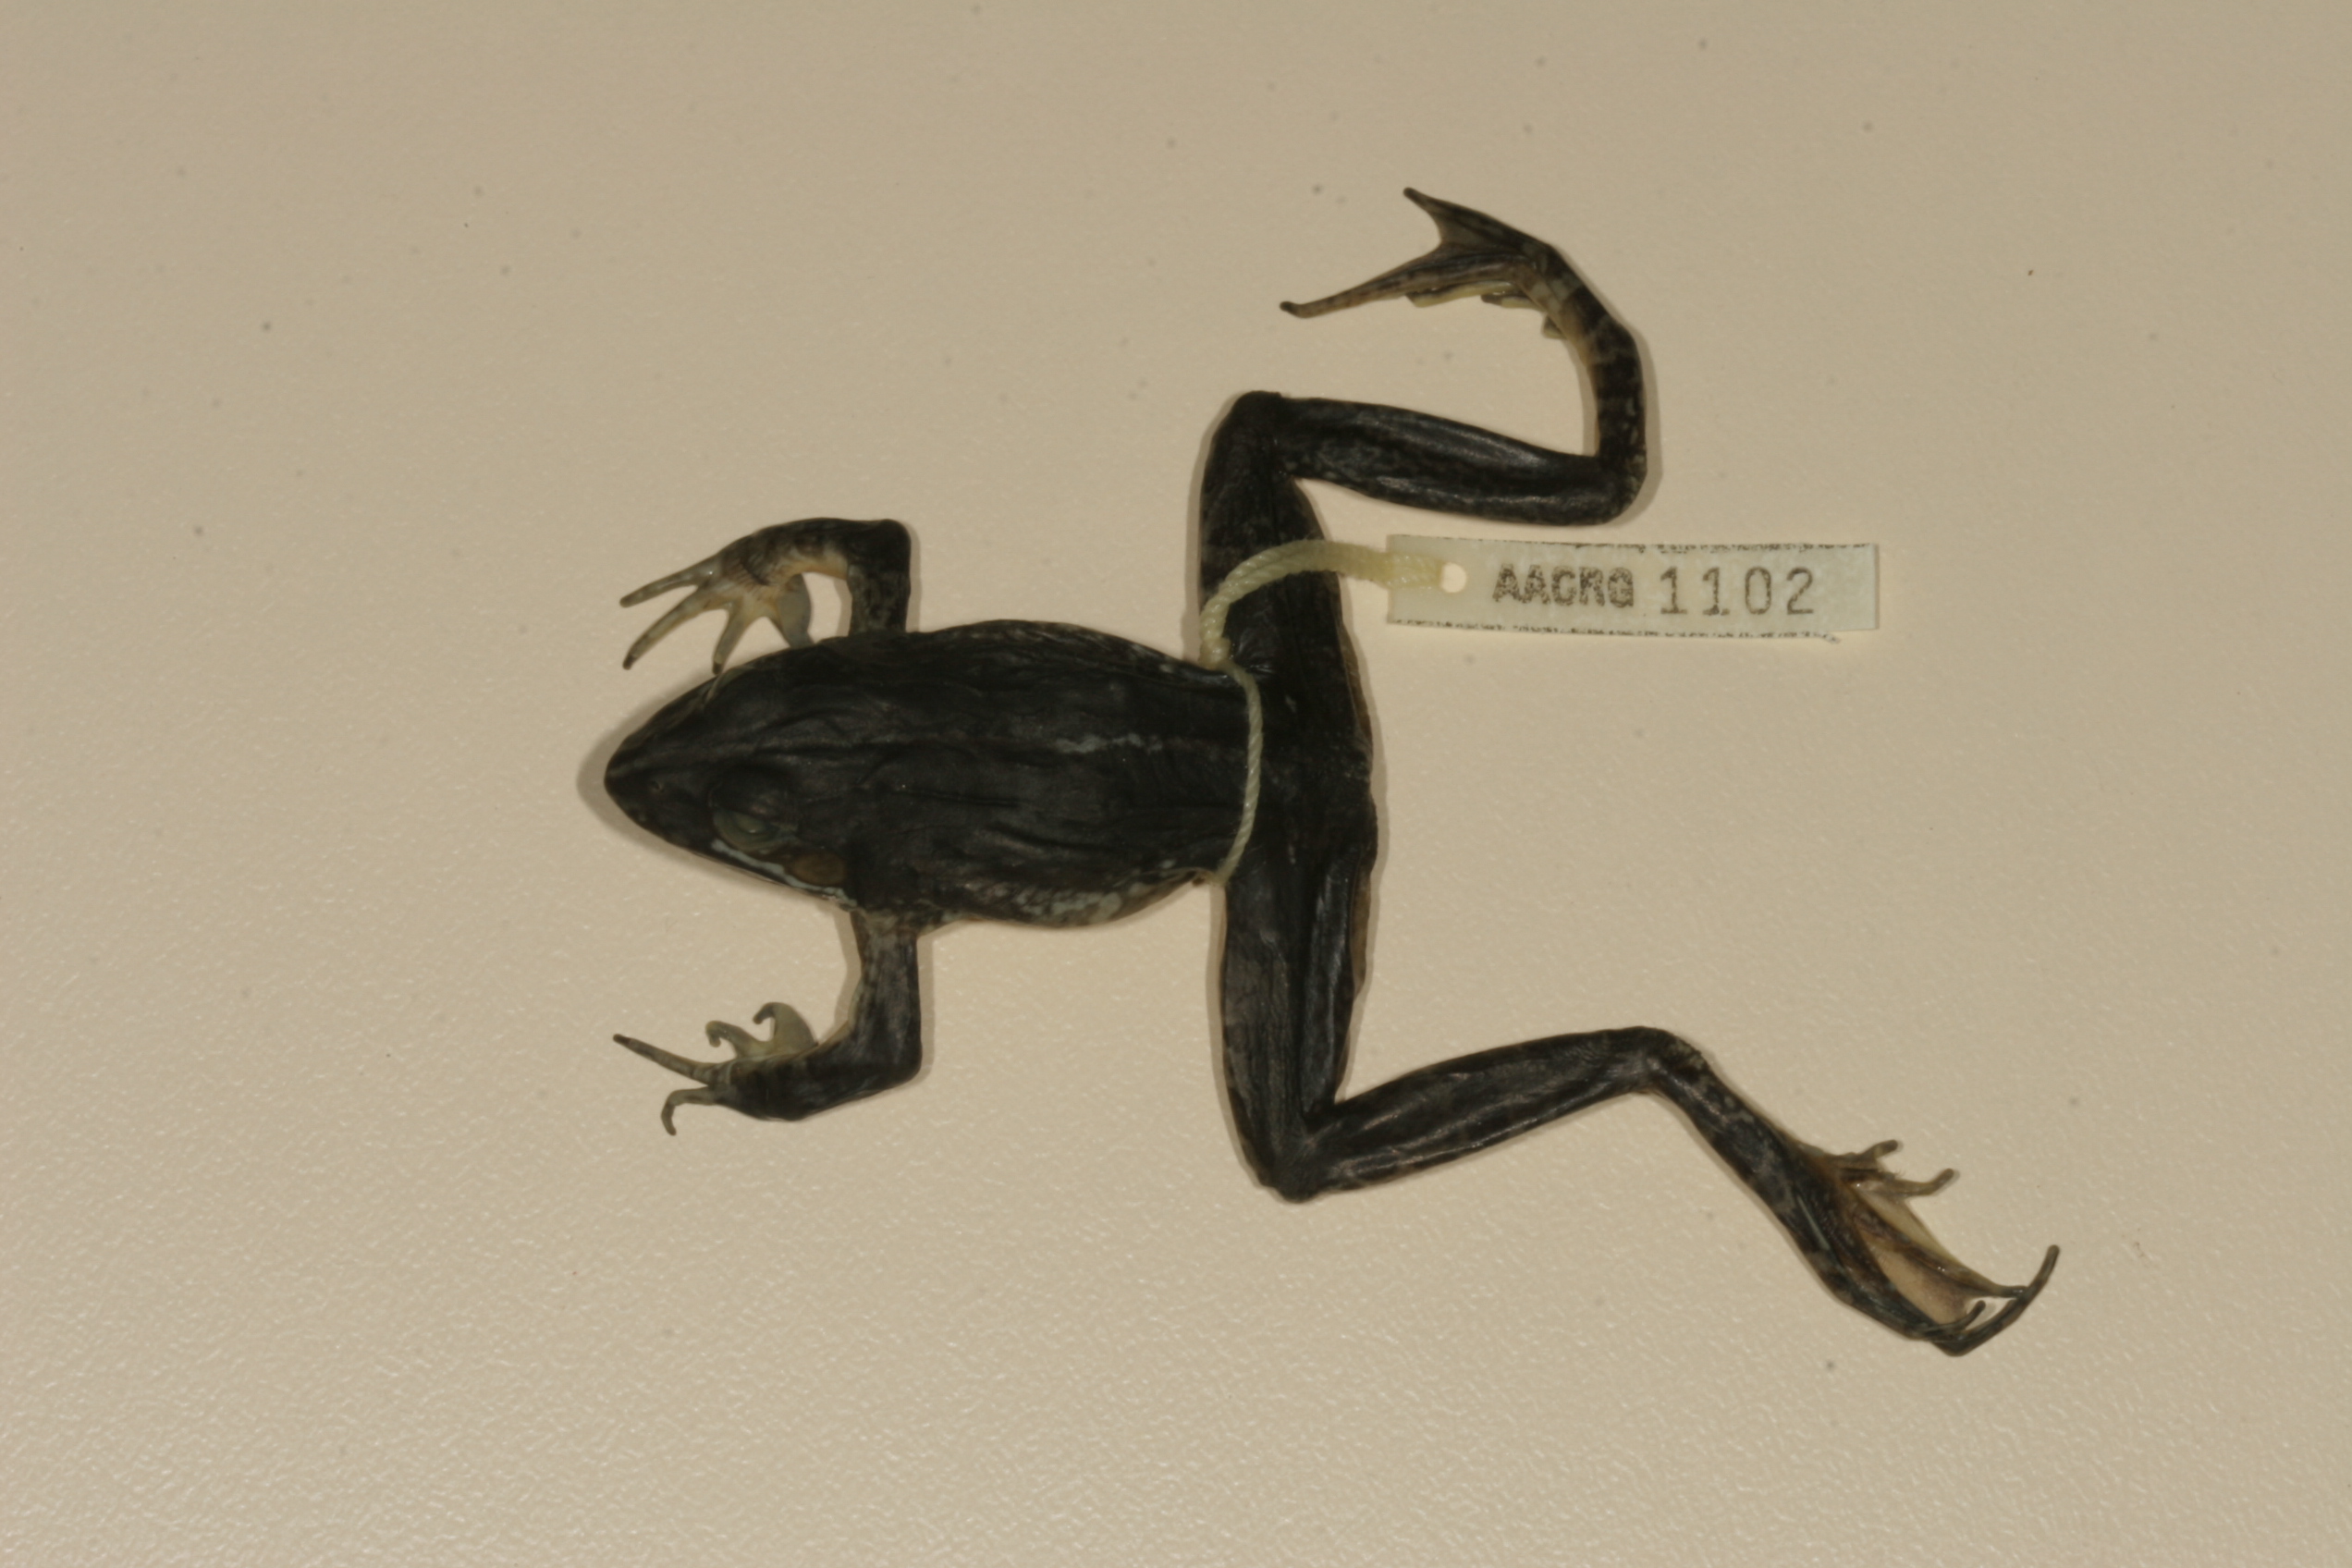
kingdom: Animalia
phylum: Chordata
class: Amphibia
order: Anura
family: Pyxicephalidae
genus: Amietia
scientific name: Amietia delalandii
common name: Delalande's river frog
